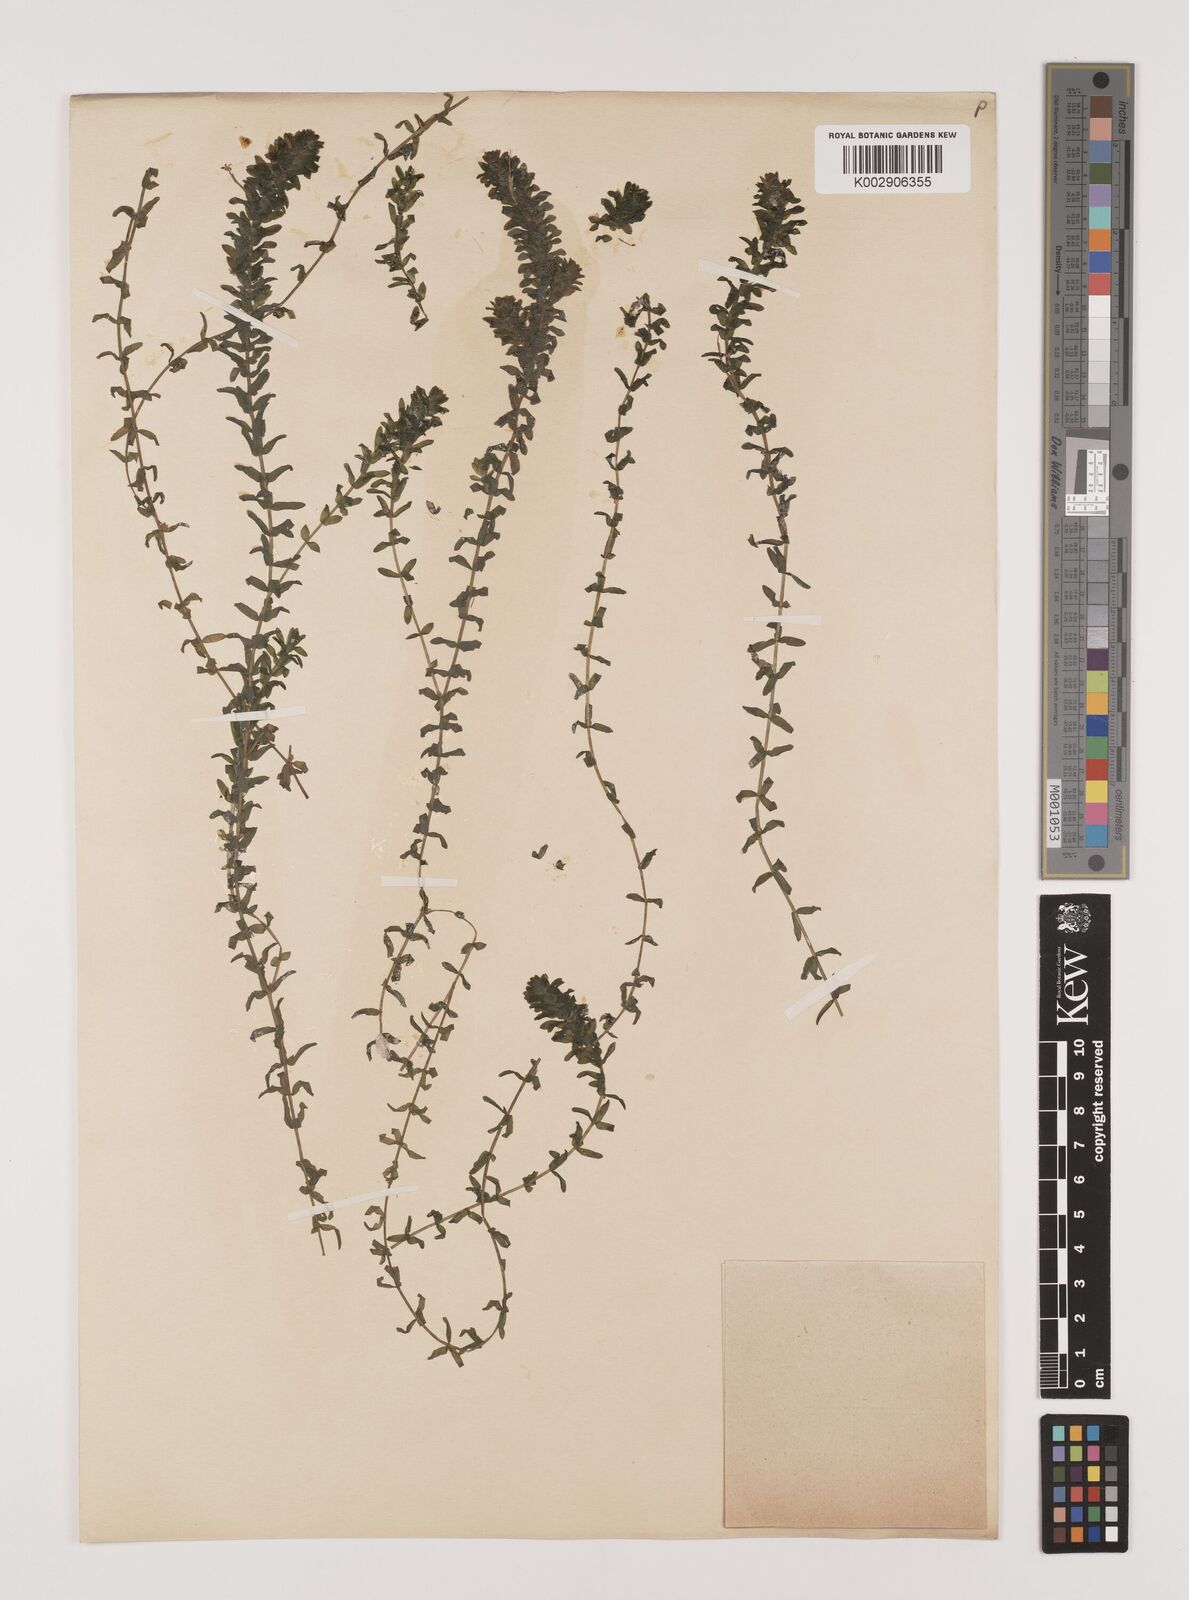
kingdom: Plantae
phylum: Tracheophyta
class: Liliopsida
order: Alismatales
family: Hydrocharitaceae
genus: Elodea
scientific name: Elodea canadensis
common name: Canadian waterweed
